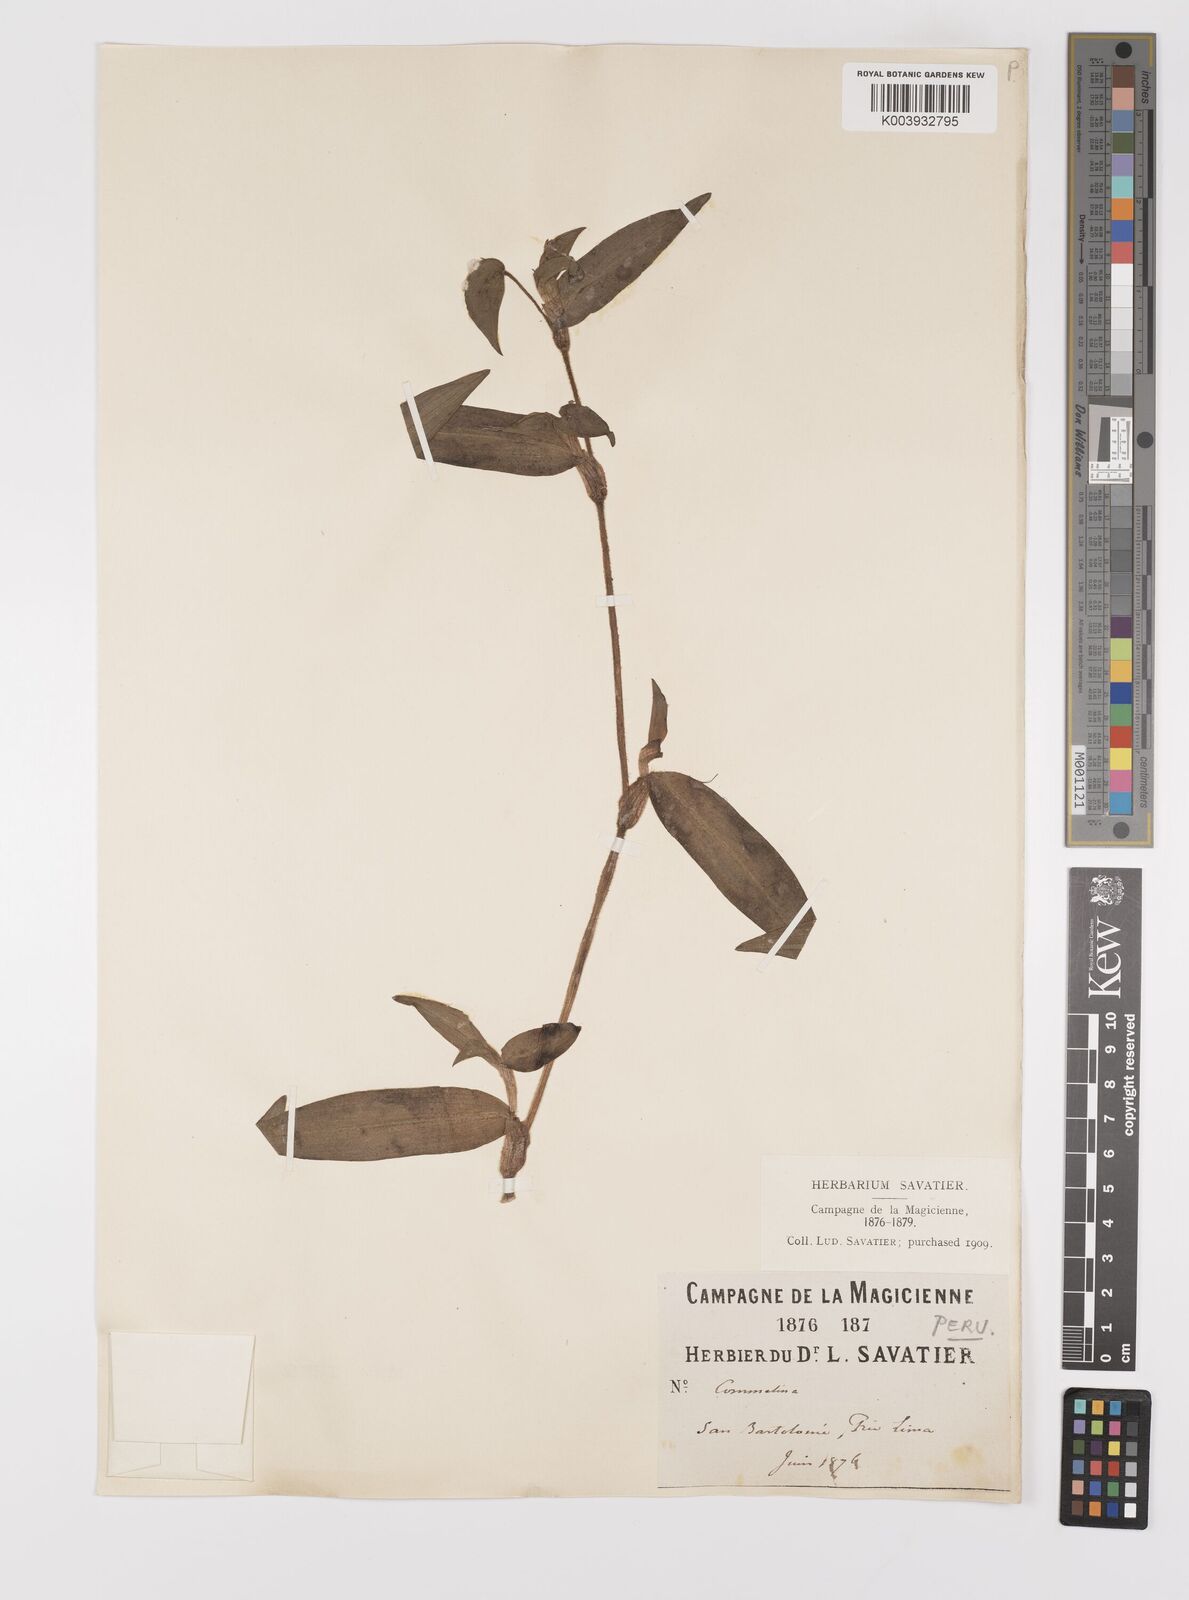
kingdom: Plantae
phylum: Tracheophyta
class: Liliopsida
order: Commelinales
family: Commelinaceae
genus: Commelina
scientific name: Commelina
